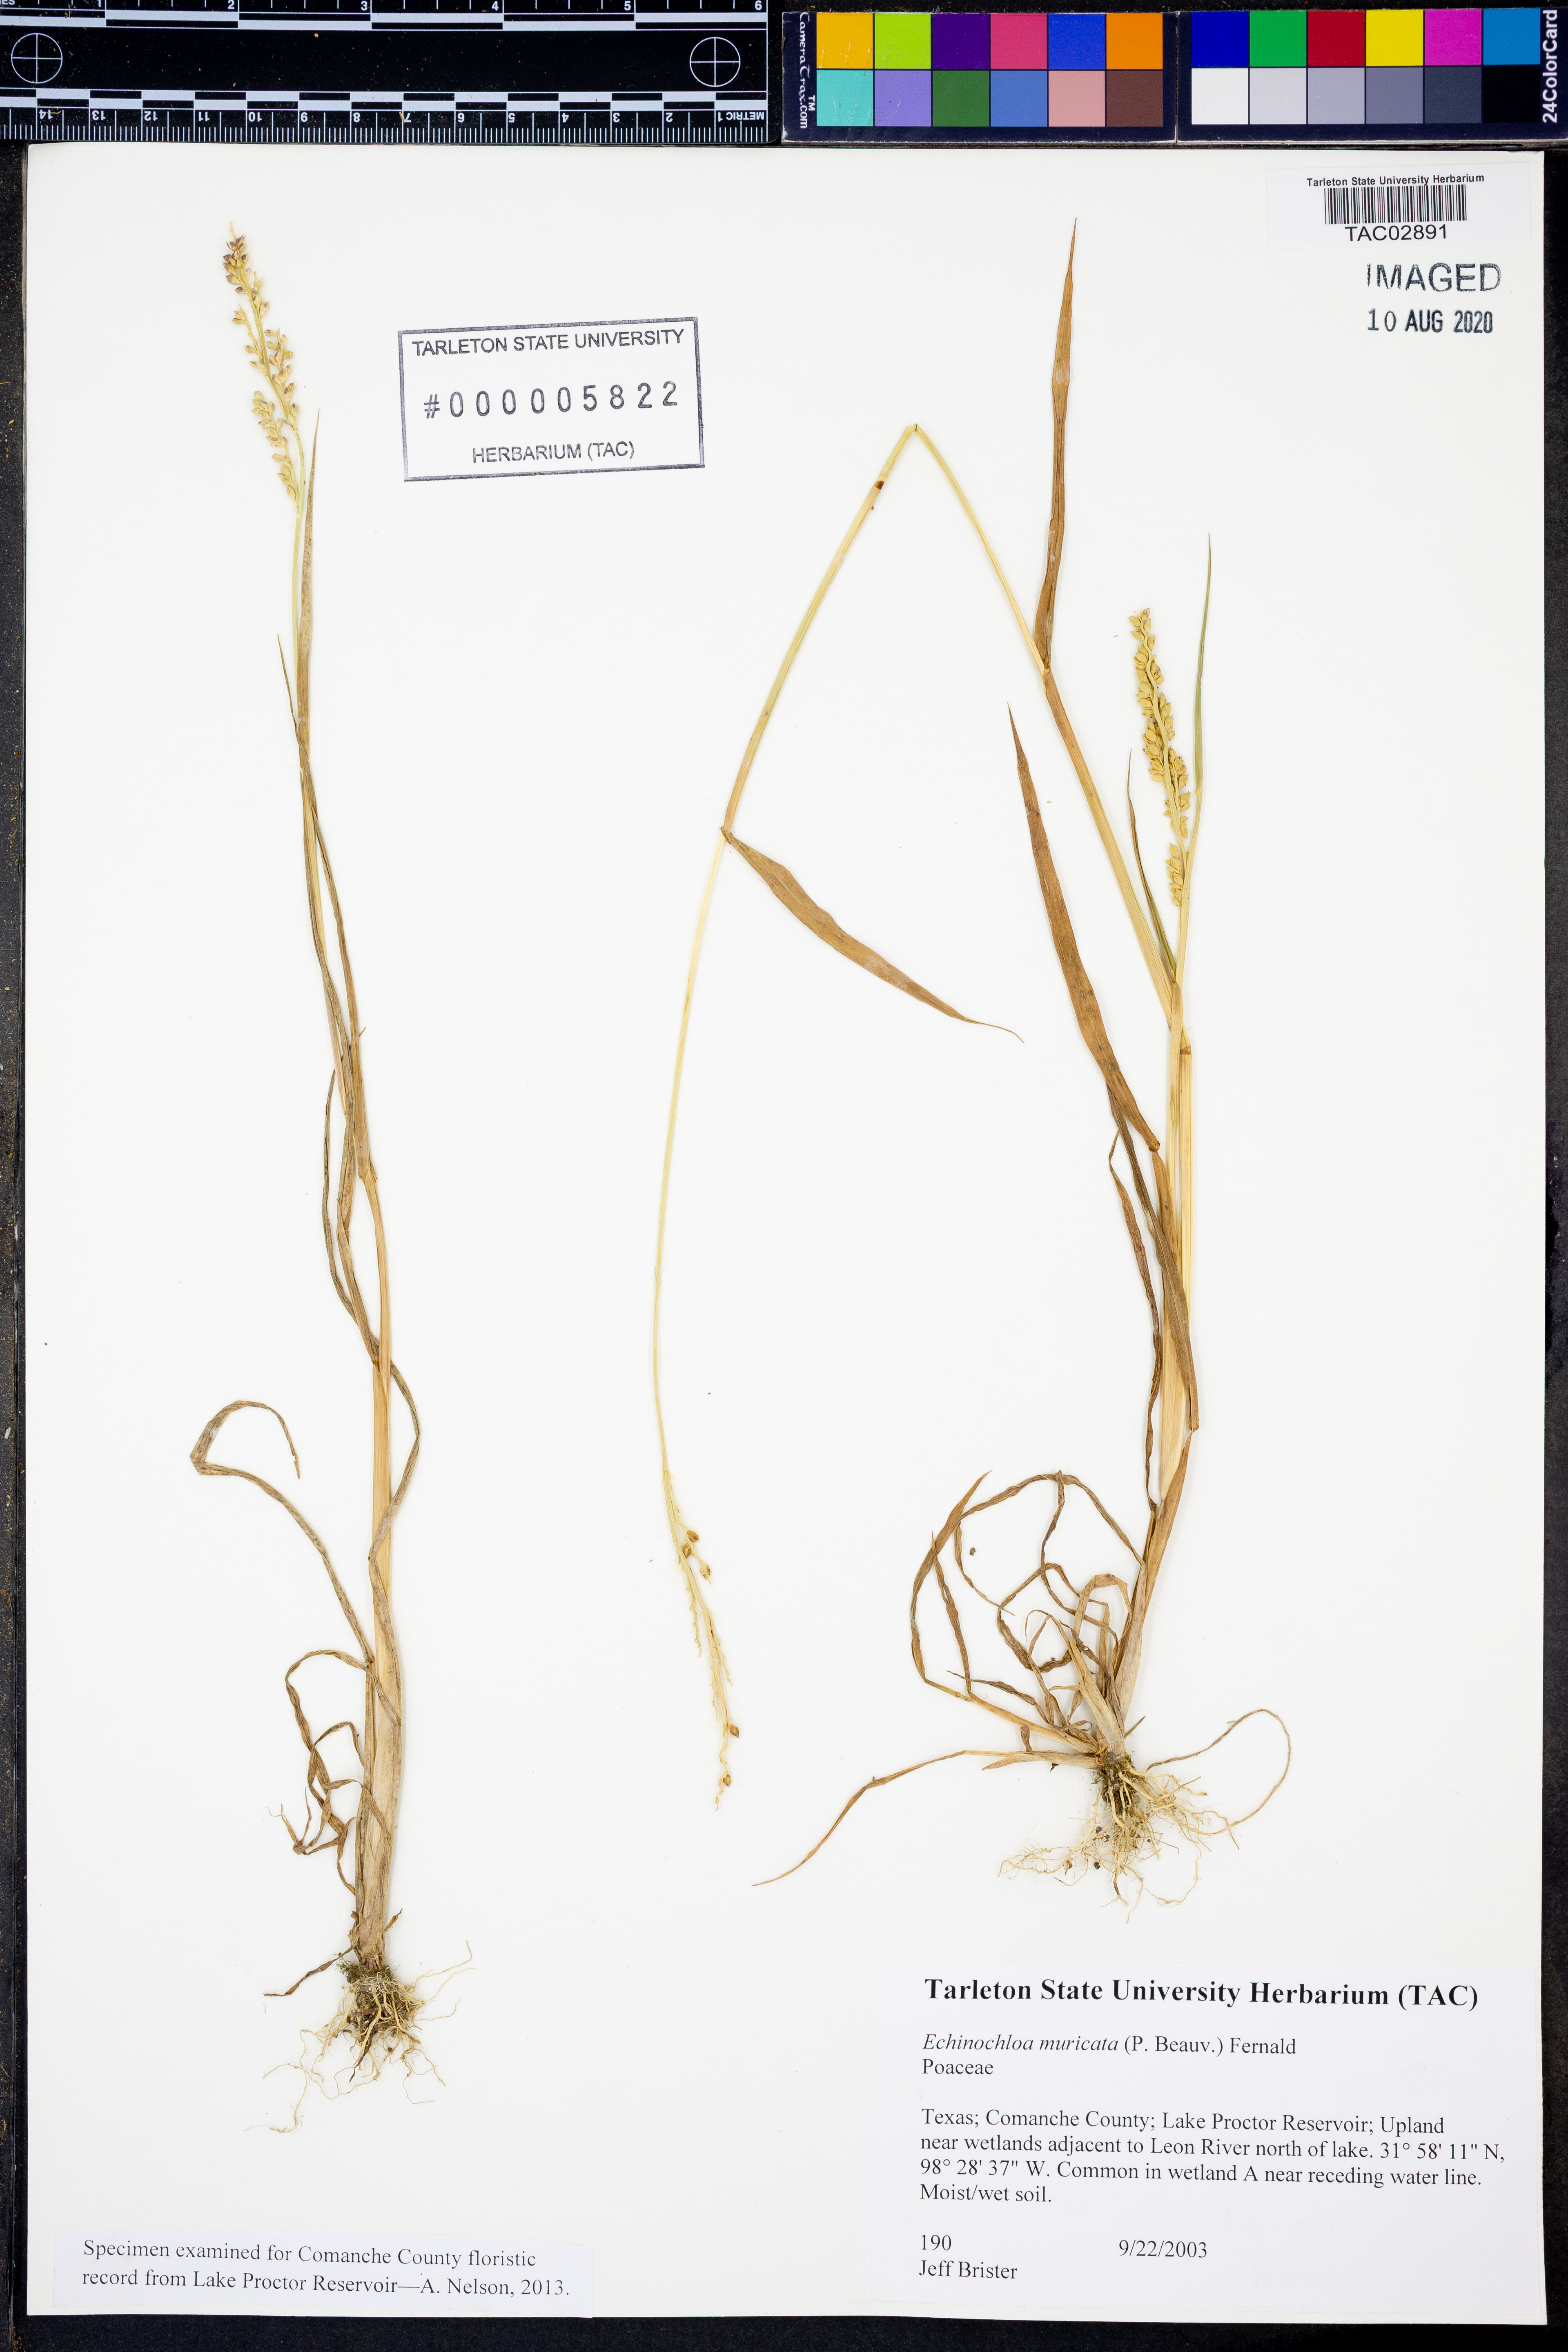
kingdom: Plantae
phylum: Tracheophyta
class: Liliopsida
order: Poales
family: Poaceae
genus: Echinochloa
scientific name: Echinochloa muricata
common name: American barnyard grass
